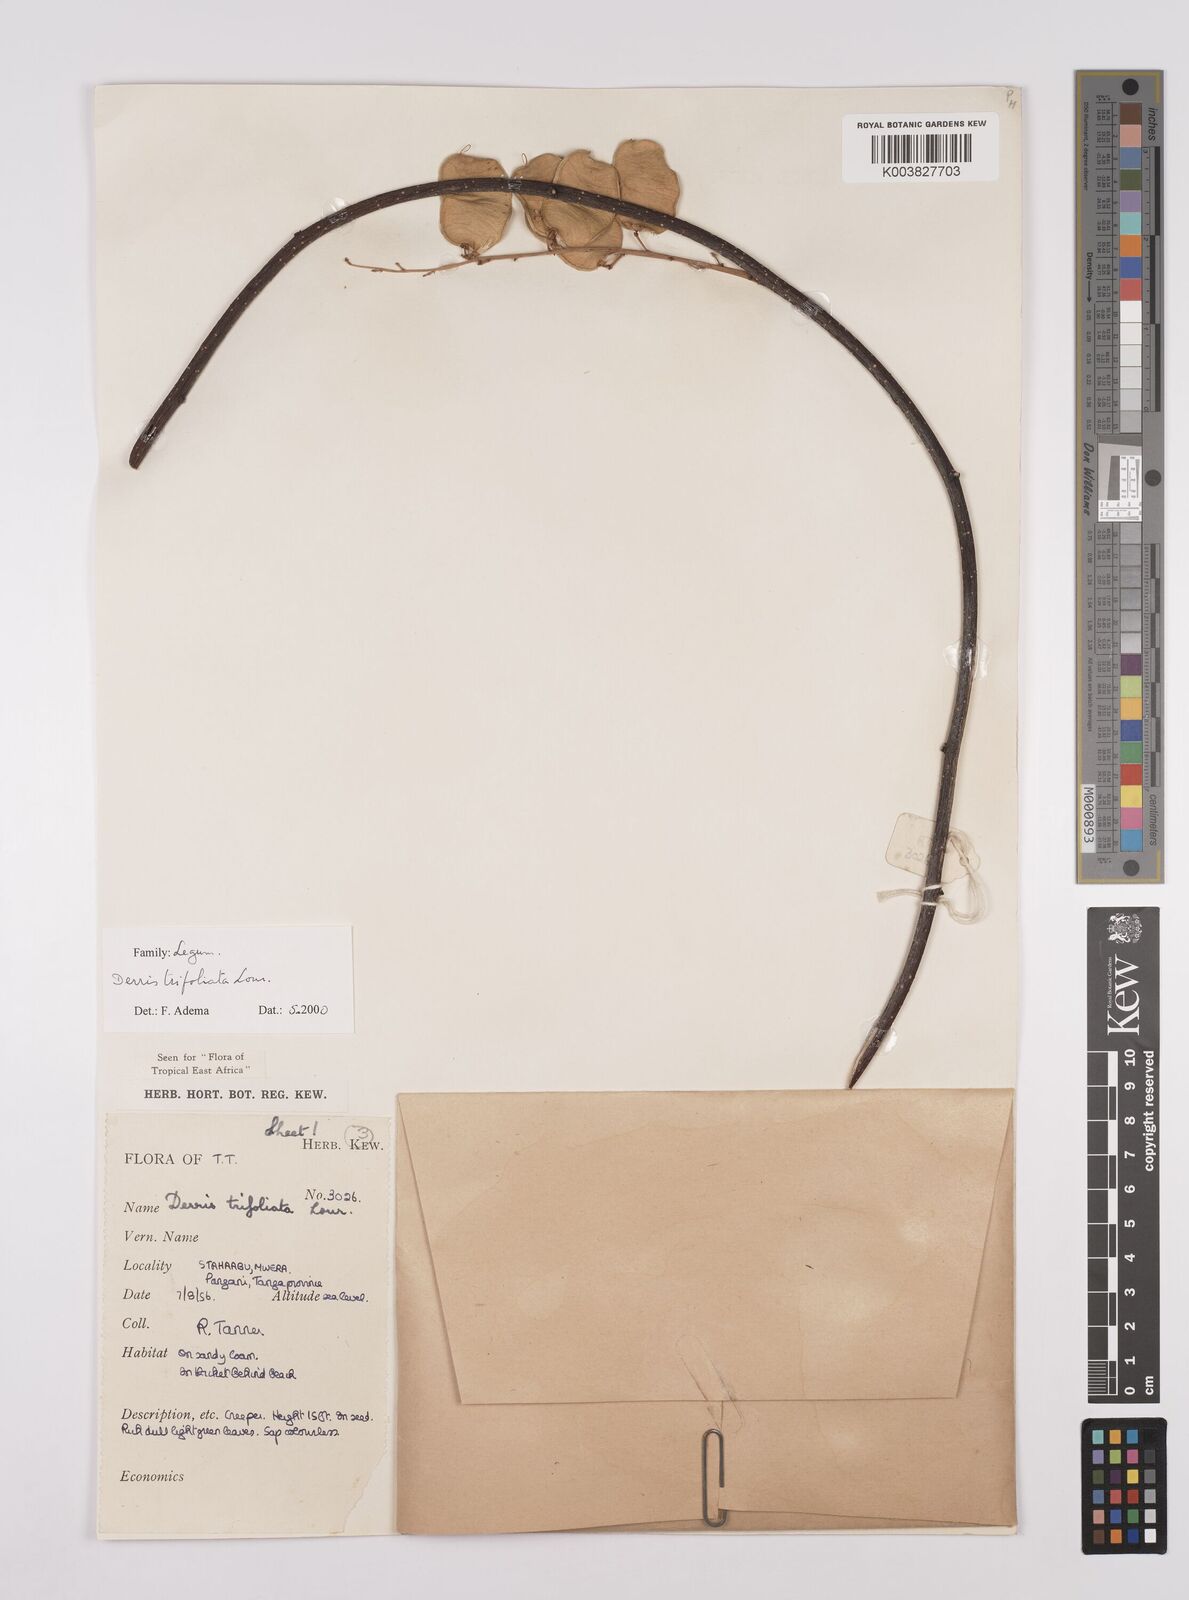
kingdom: Plantae
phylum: Tracheophyta
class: Magnoliopsida
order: Fabales
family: Fabaceae
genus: Derris
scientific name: Derris trifoliata
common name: Three-leaf derris
